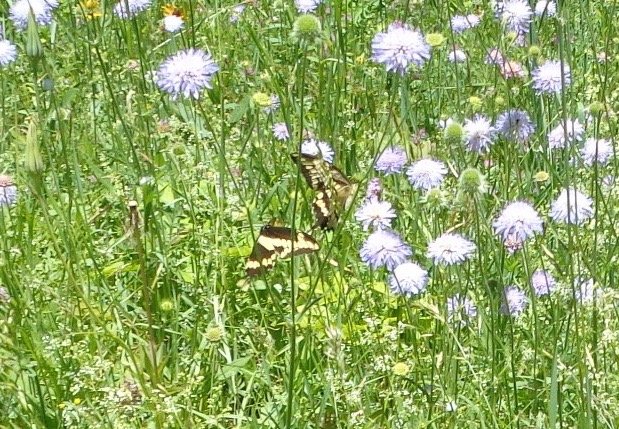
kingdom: Animalia
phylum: Arthropoda
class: Insecta
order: Lepidoptera
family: Papilionidae
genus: Papilio
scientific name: Papilio cresphontes
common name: Eastern Giant Swallowtail
